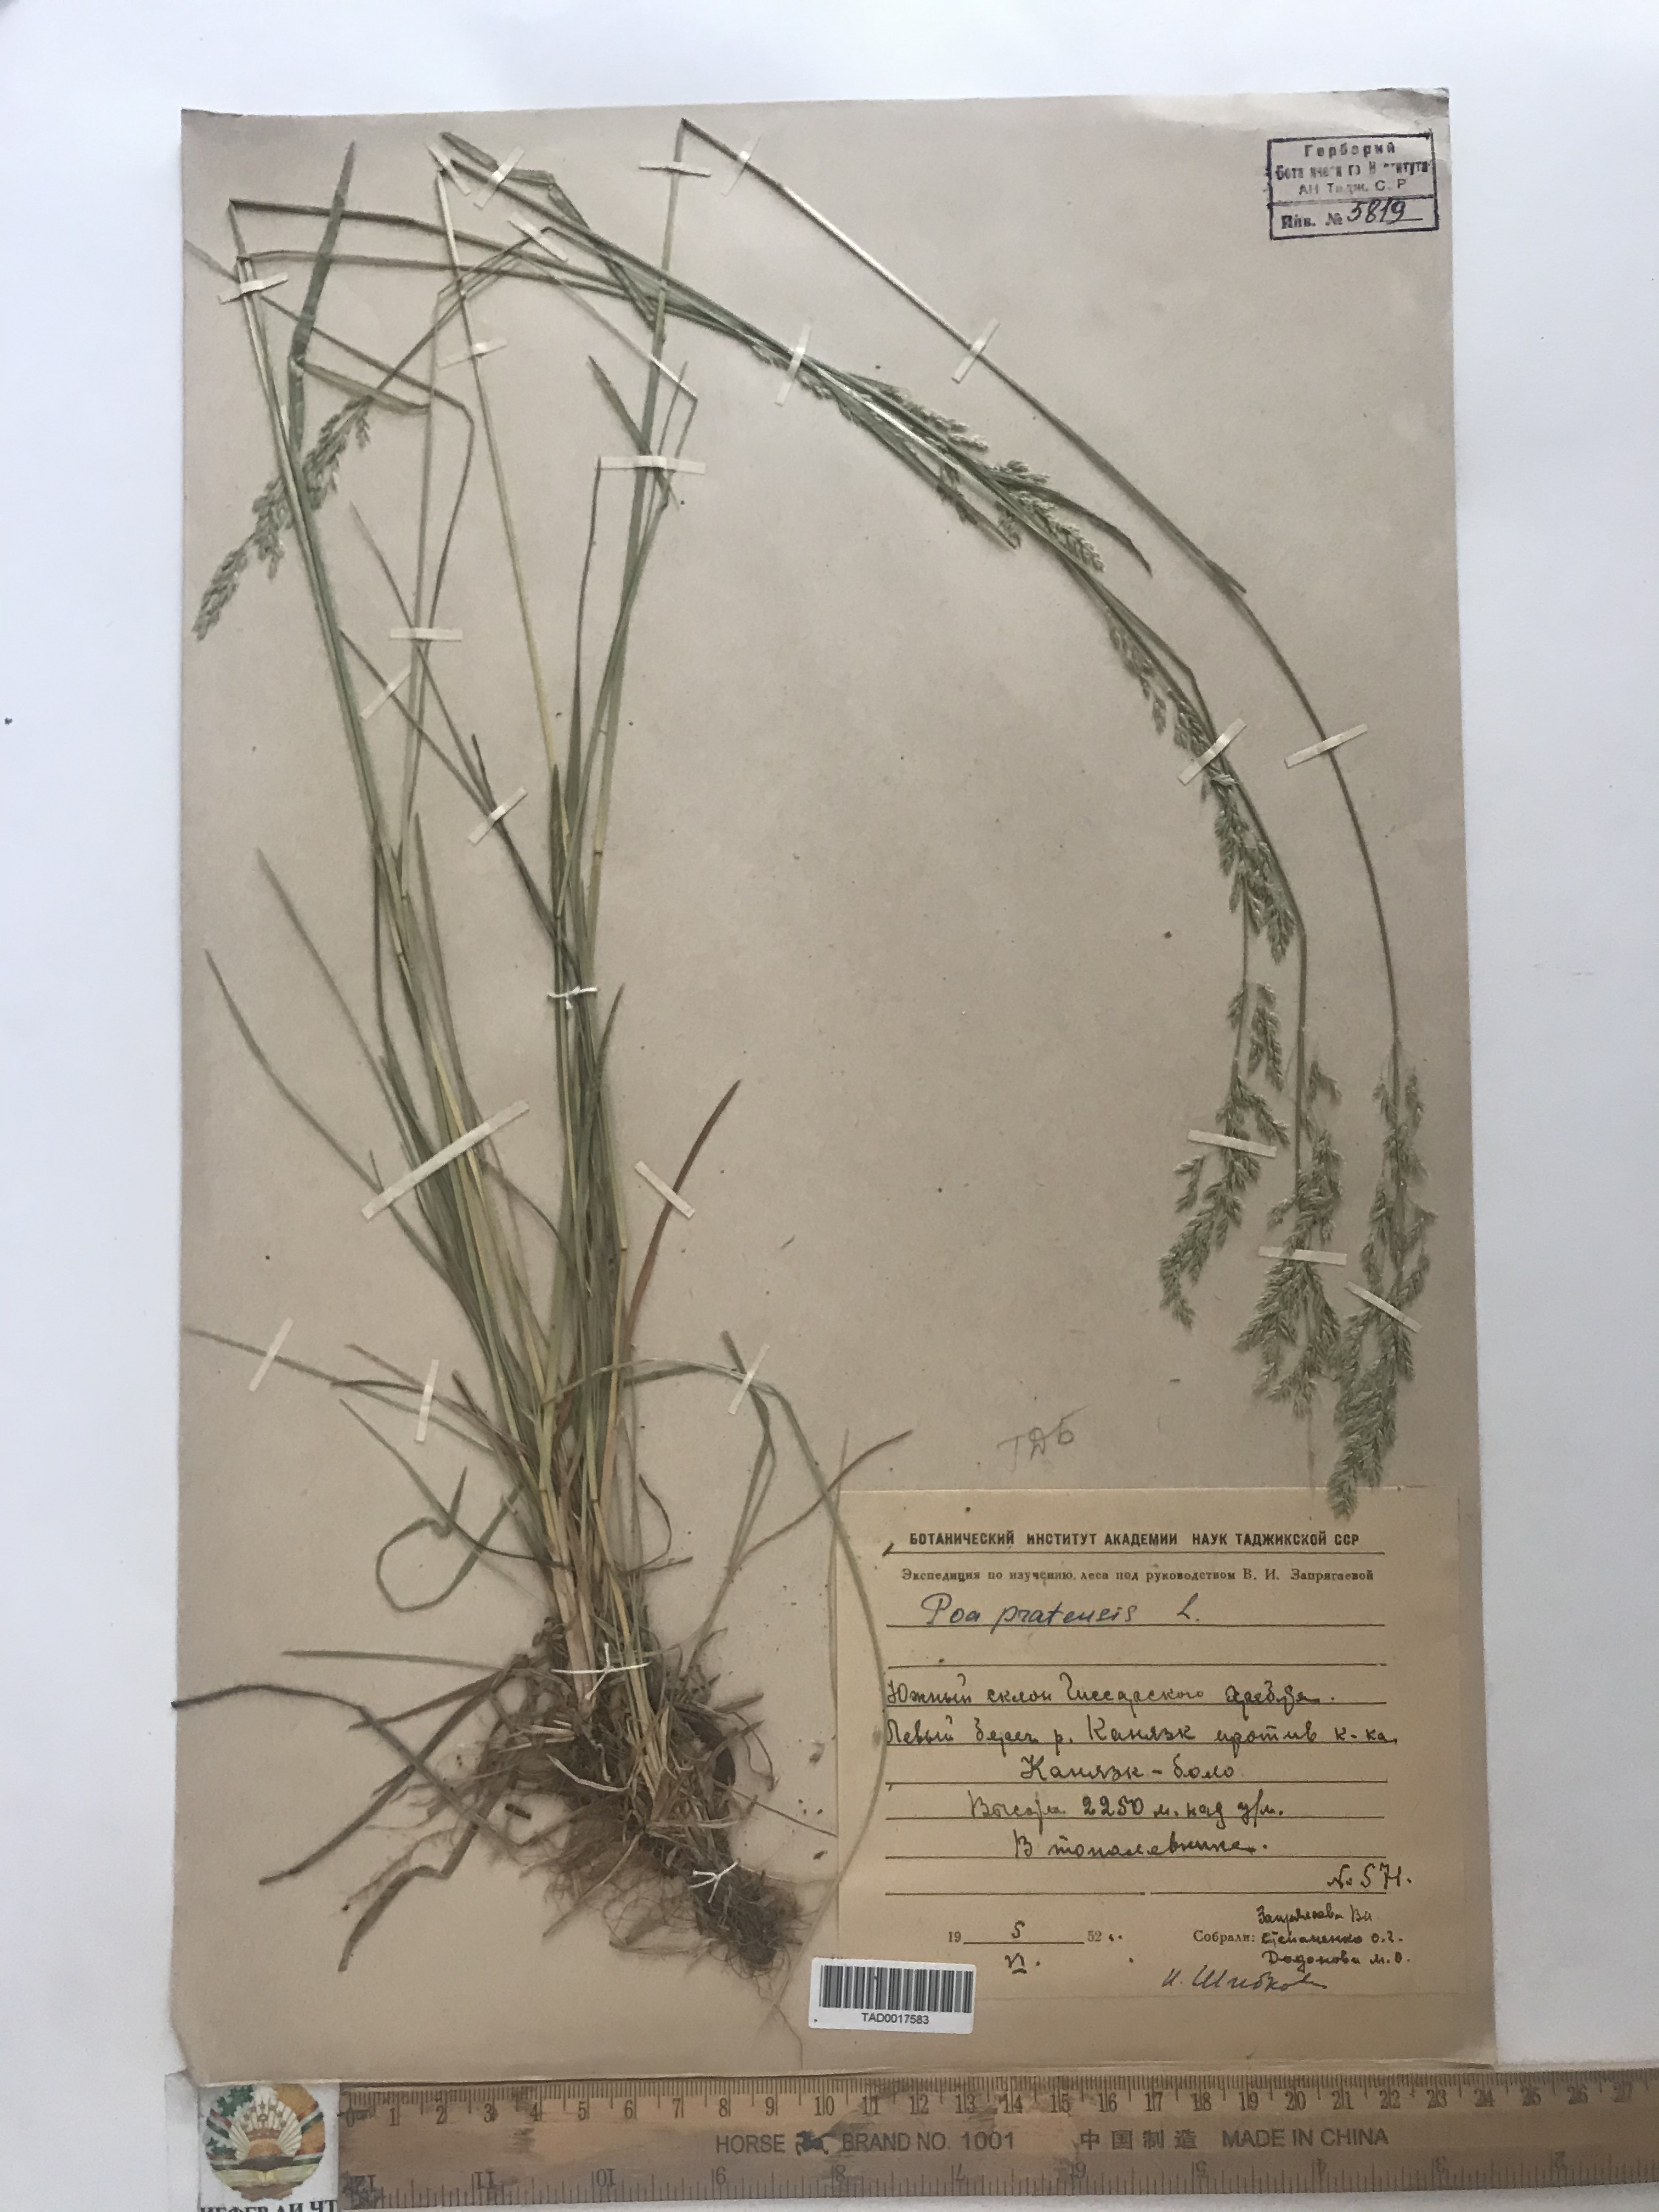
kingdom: Plantae
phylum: Tracheophyta
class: Liliopsida
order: Poales
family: Poaceae
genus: Poa
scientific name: Poa pratensis
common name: Kentucky bluegrass
